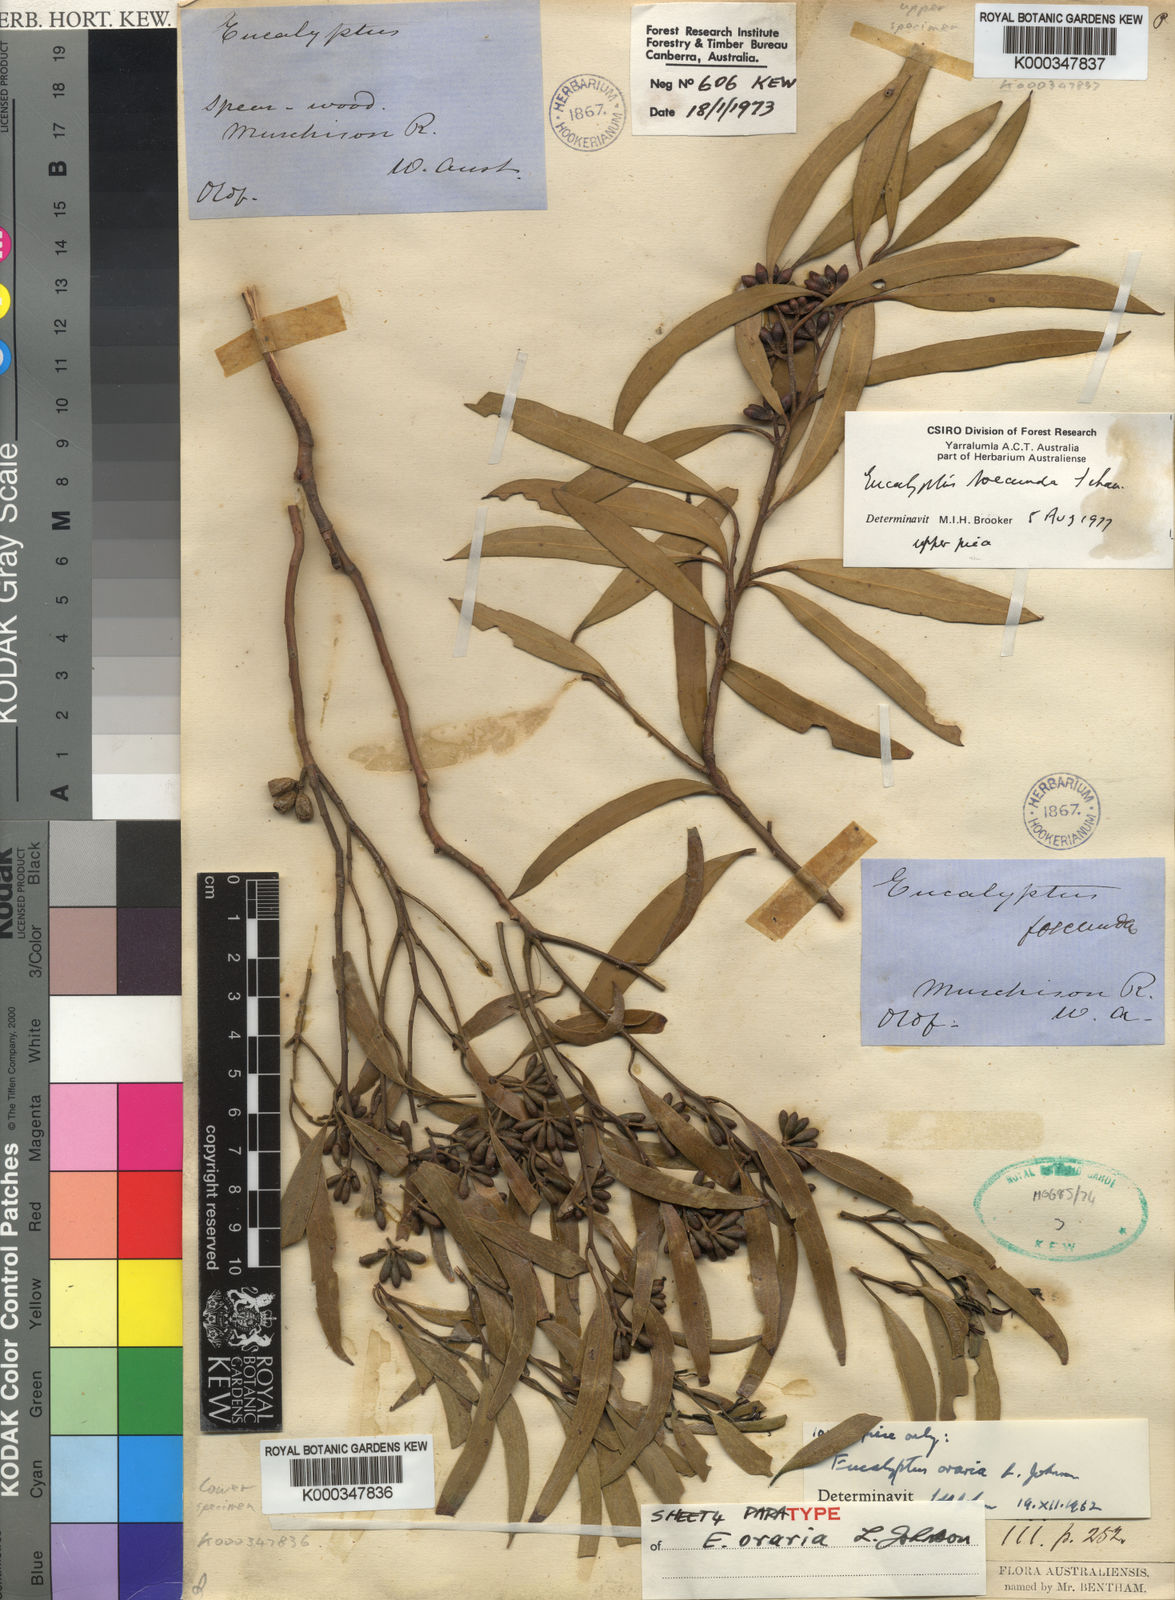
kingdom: Plantae
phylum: Tracheophyta
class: Magnoliopsida
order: Myrtales
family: Myrtaceae
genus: Eucalyptus
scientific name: Eucalyptus oraria
